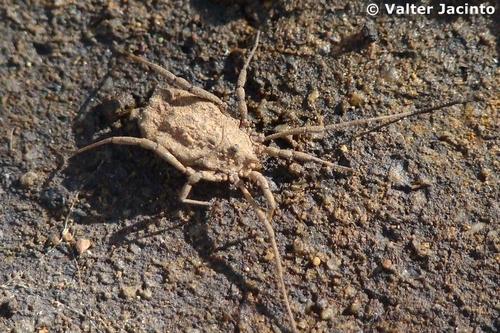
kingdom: Animalia
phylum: Arthropoda
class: Arachnida
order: Opiliones
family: Sclerosomatidae
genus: Homalenotus
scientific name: Homalenotus
